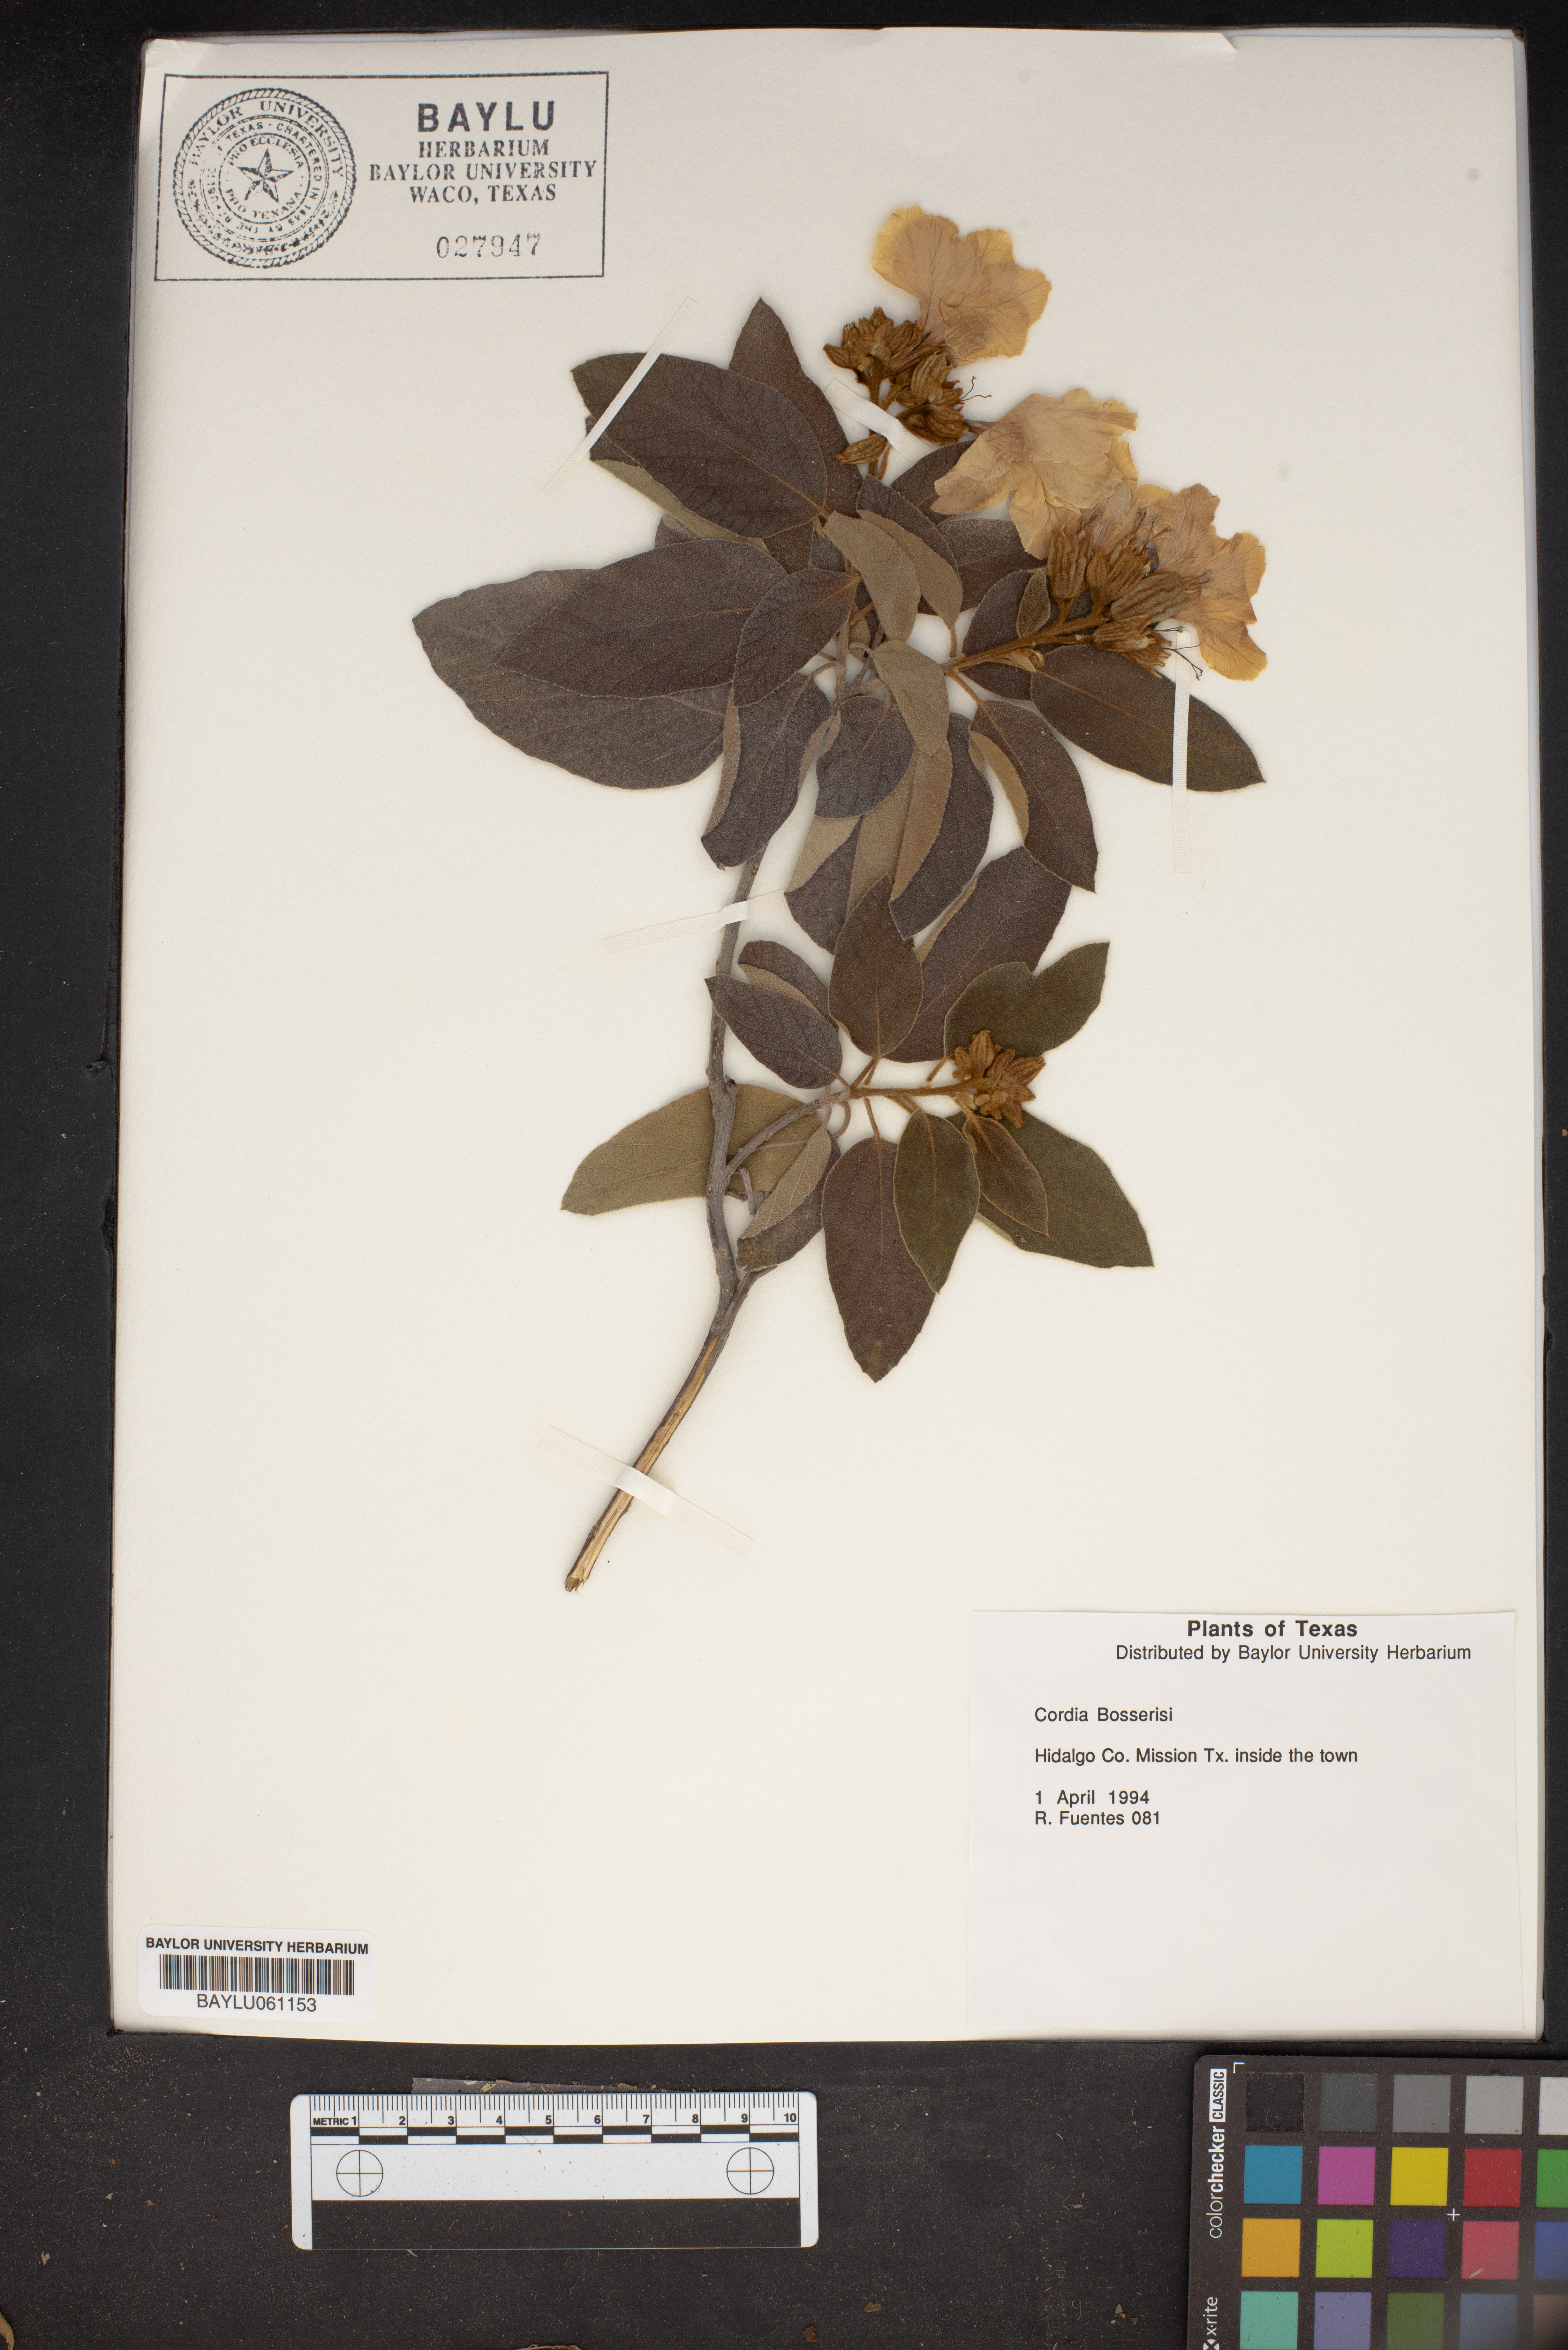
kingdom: Plantae
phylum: Tracheophyta
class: Magnoliopsida
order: Boraginales
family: Cordiaceae
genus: Cordia
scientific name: Cordia boissieri
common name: Mexican-olive
